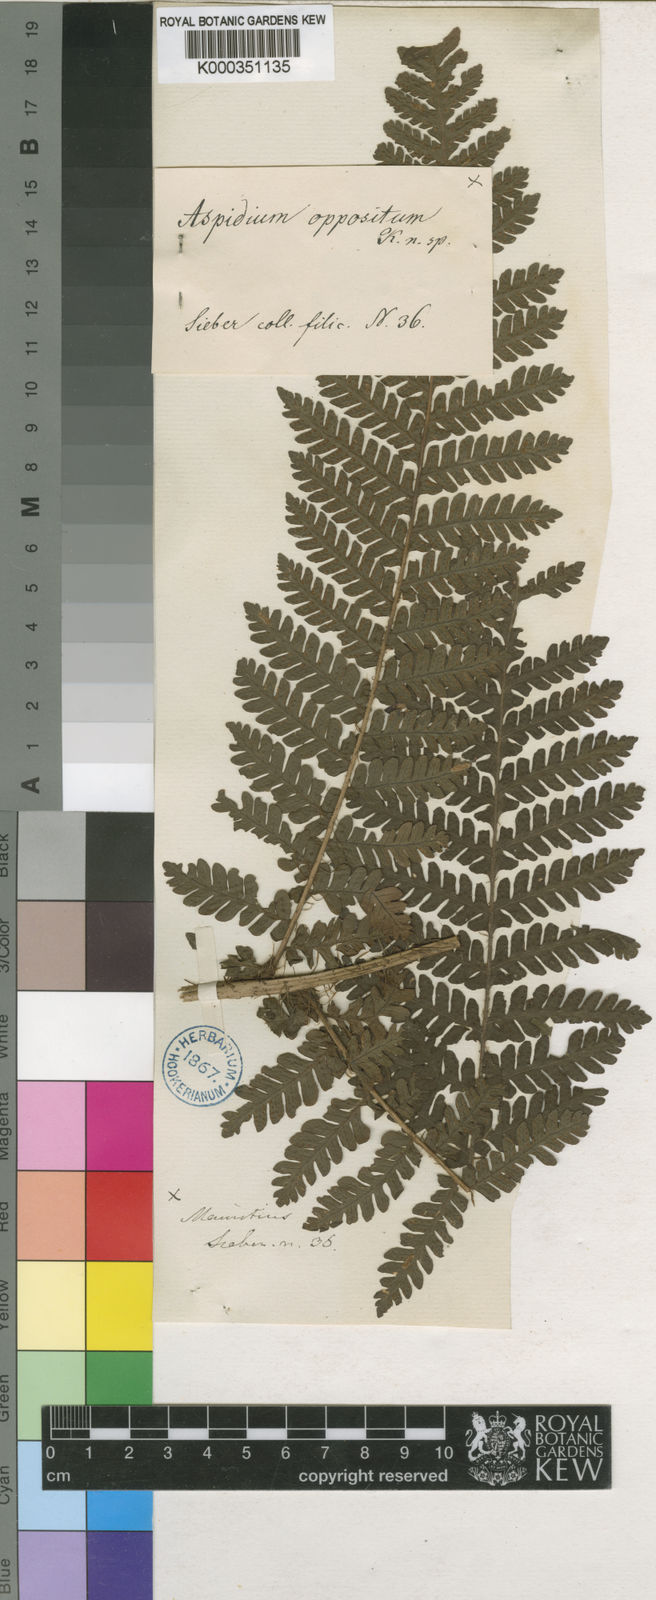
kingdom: Plantae
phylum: Tracheophyta
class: Polypodiopsida
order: Polypodiales
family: Dryopteridaceae
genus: Megalastrum
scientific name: Megalastrum oppositum
